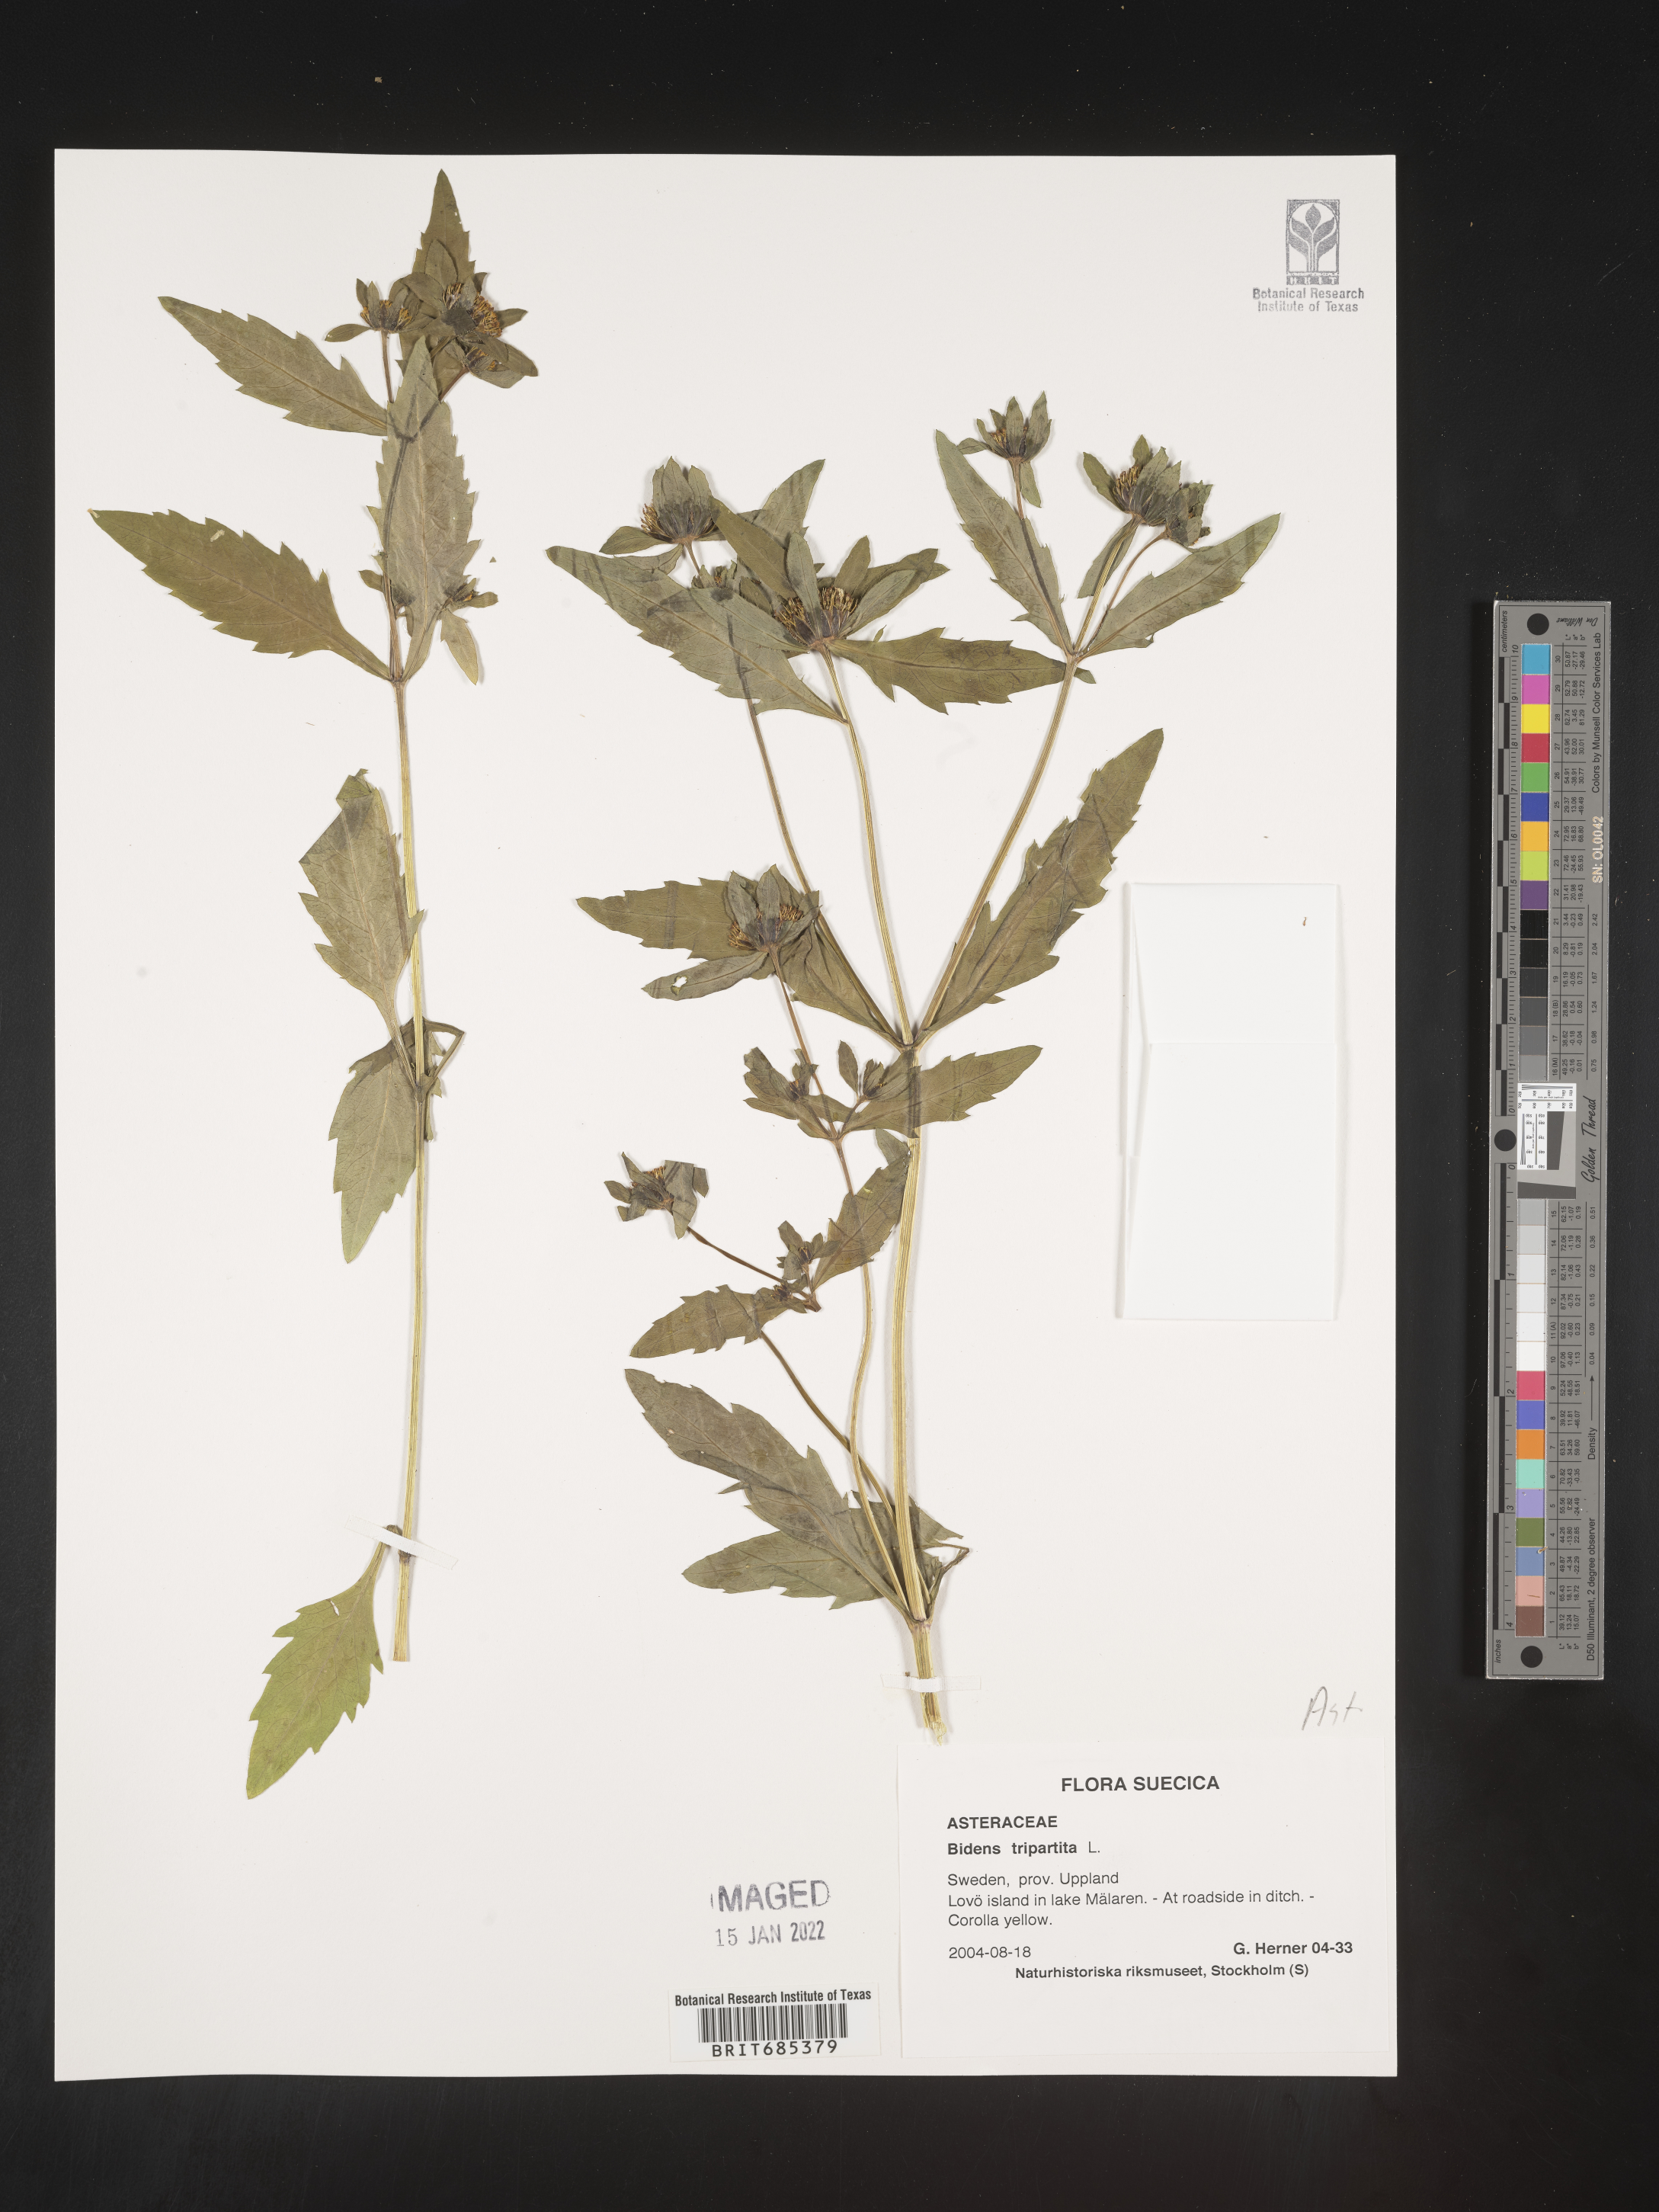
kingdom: Plantae
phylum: Tracheophyta
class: Magnoliopsida
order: Asterales
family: Asteraceae
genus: Bidens
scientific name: Bidens
